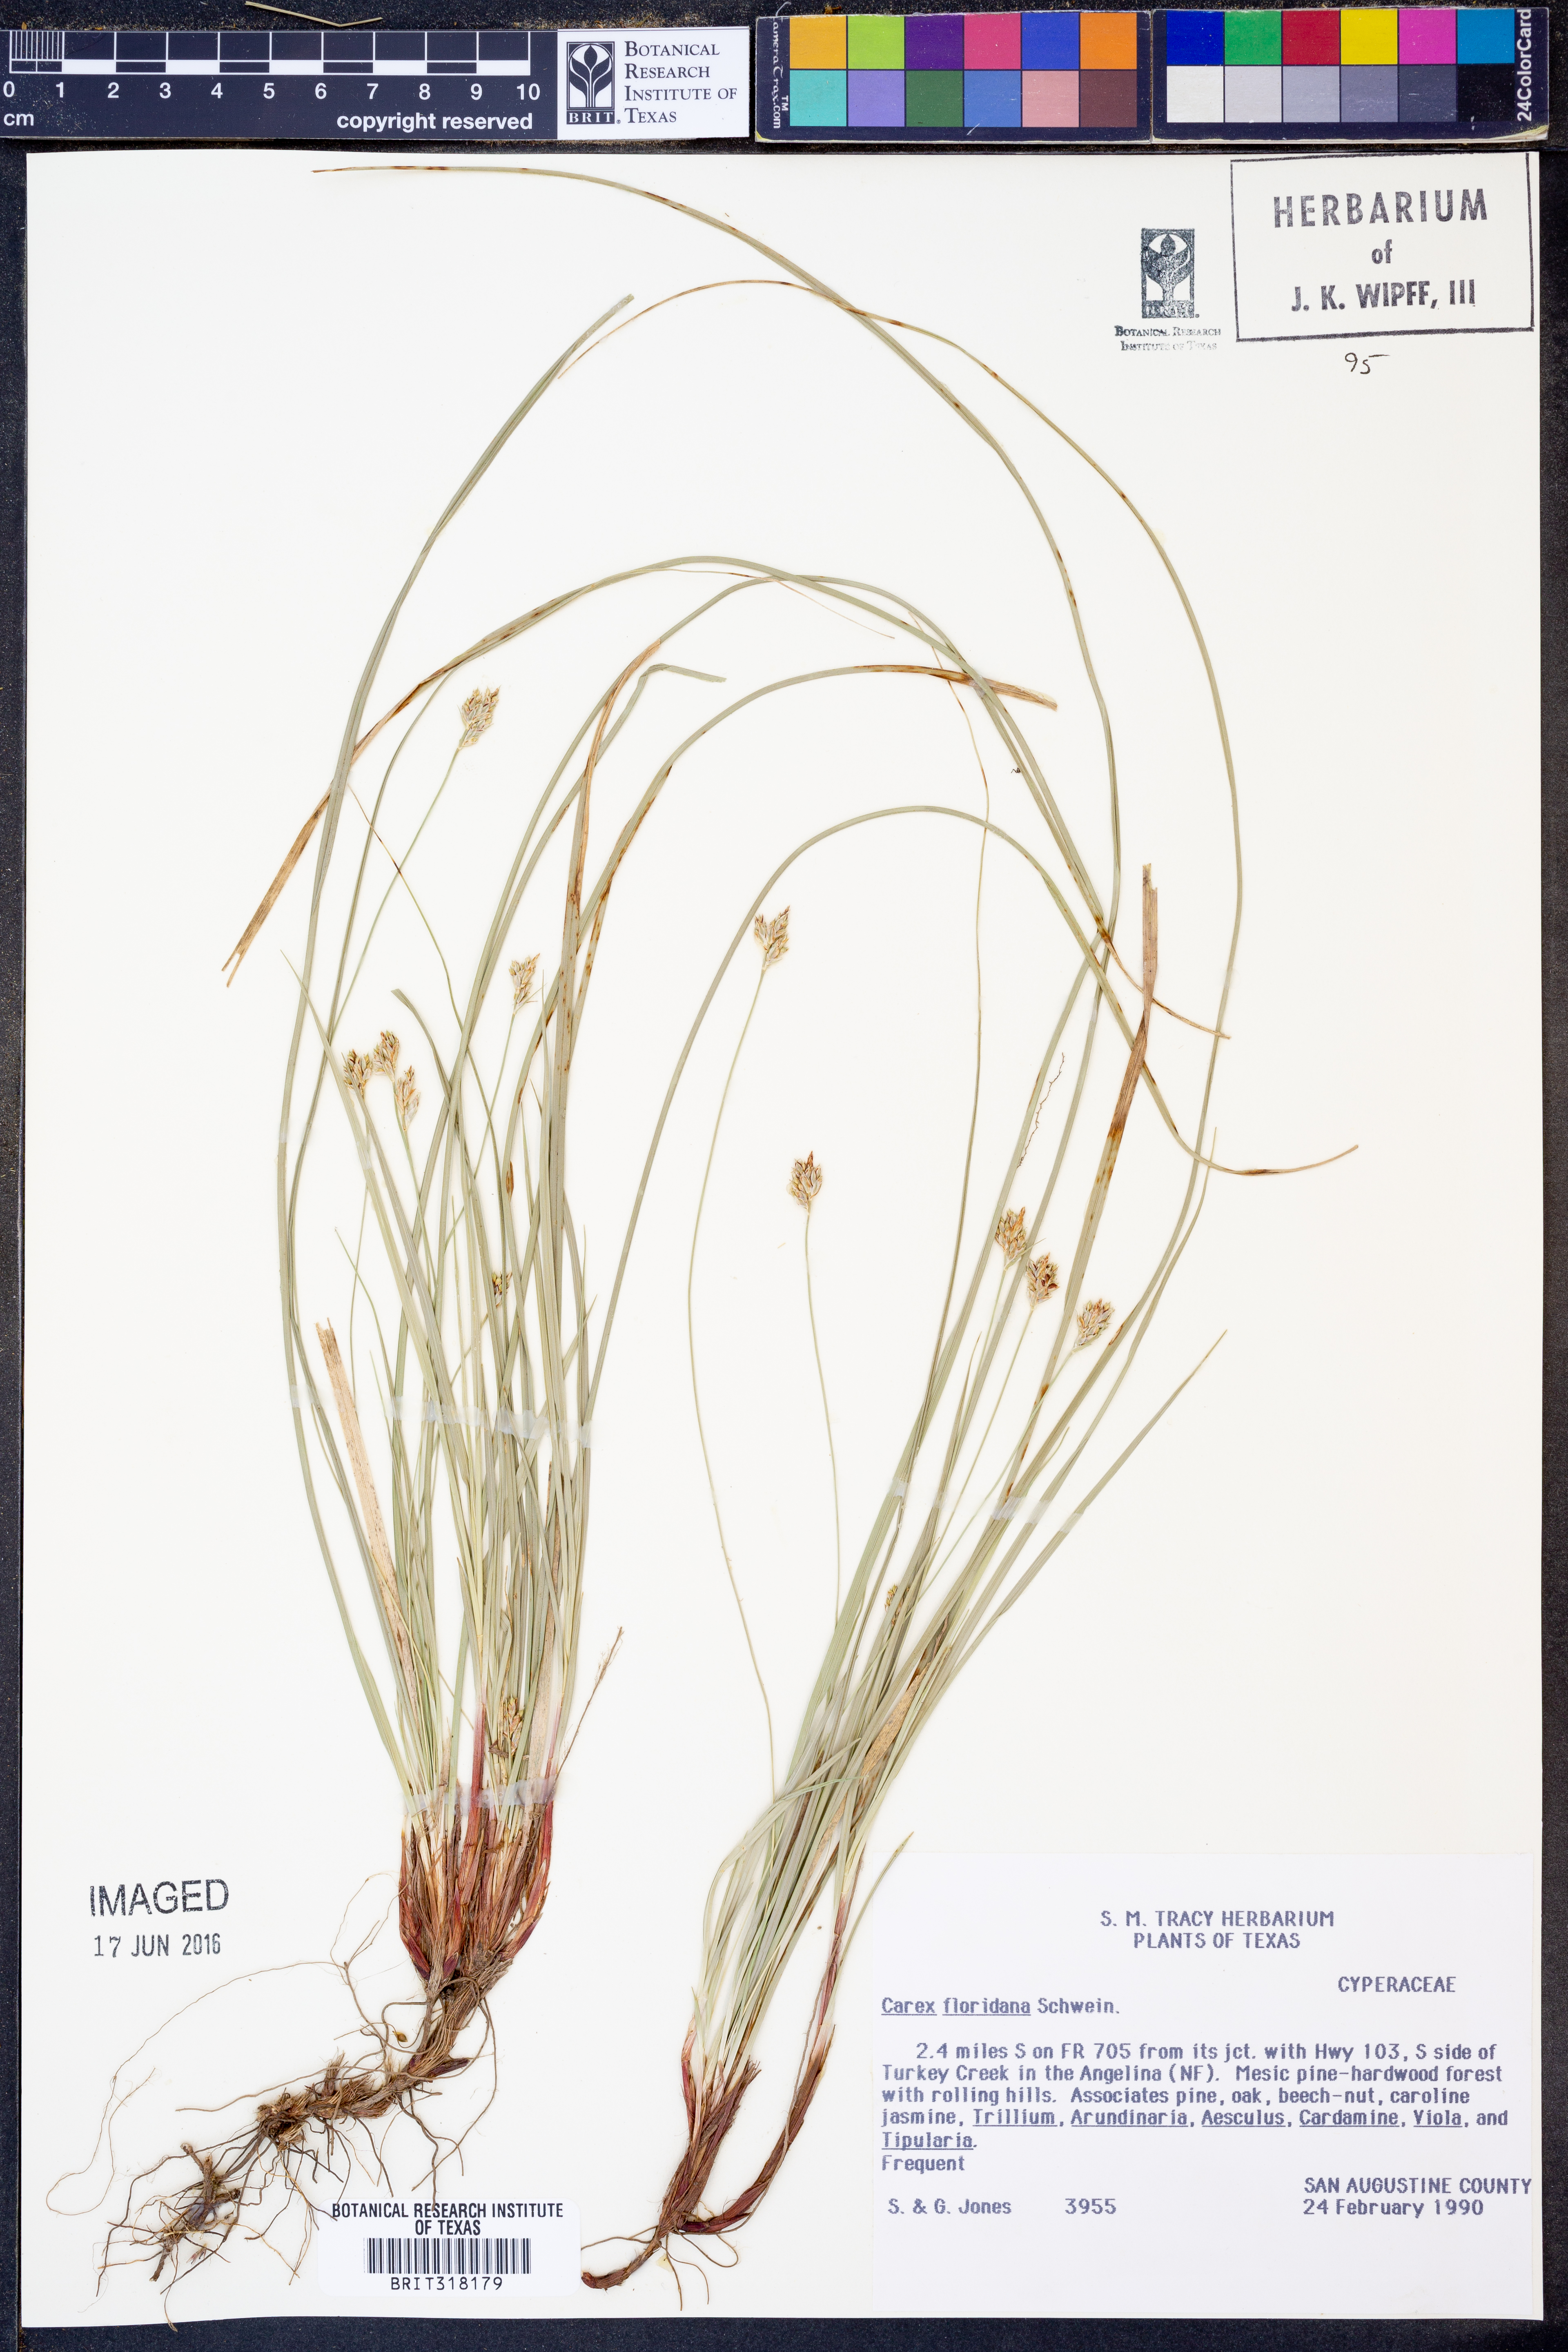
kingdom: Plantae
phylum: Tracheophyta
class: Liliopsida
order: Poales
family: Cyperaceae
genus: Carex
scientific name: Carex floridana
